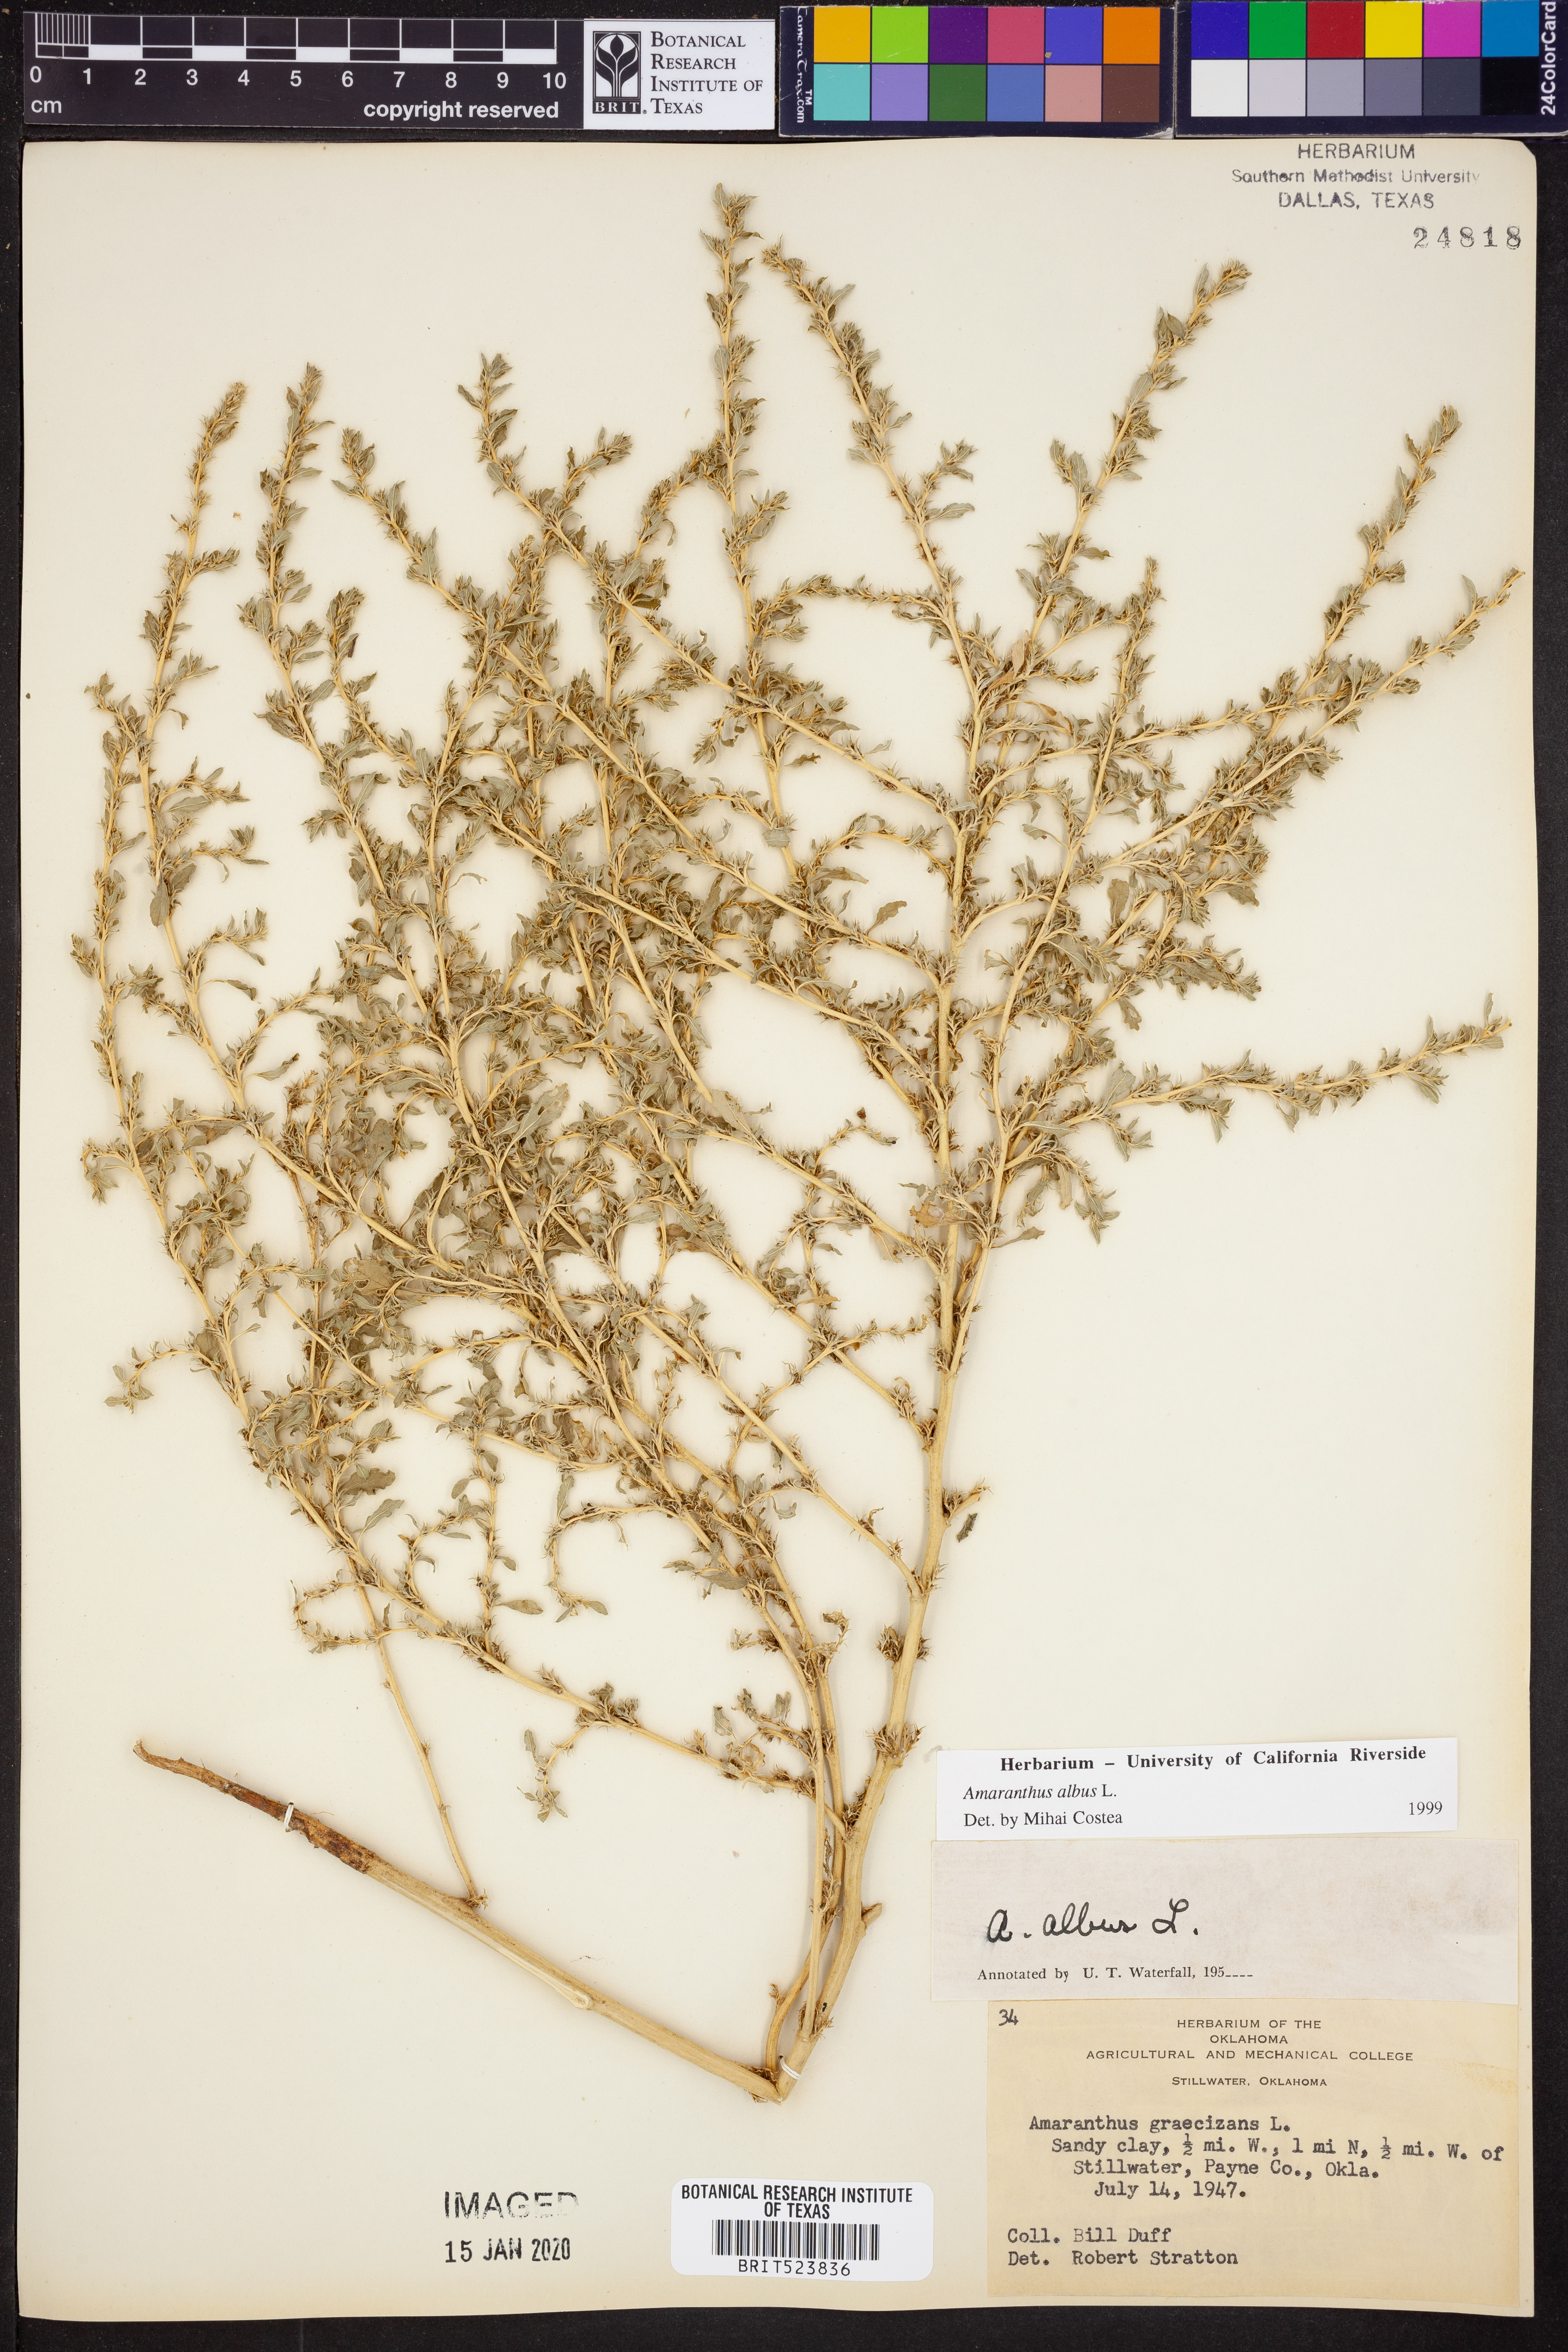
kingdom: Plantae
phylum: Tracheophyta
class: Magnoliopsida
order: Caryophyllales
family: Amaranthaceae
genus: Amaranthus
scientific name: Amaranthus albus
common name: White pigweed
